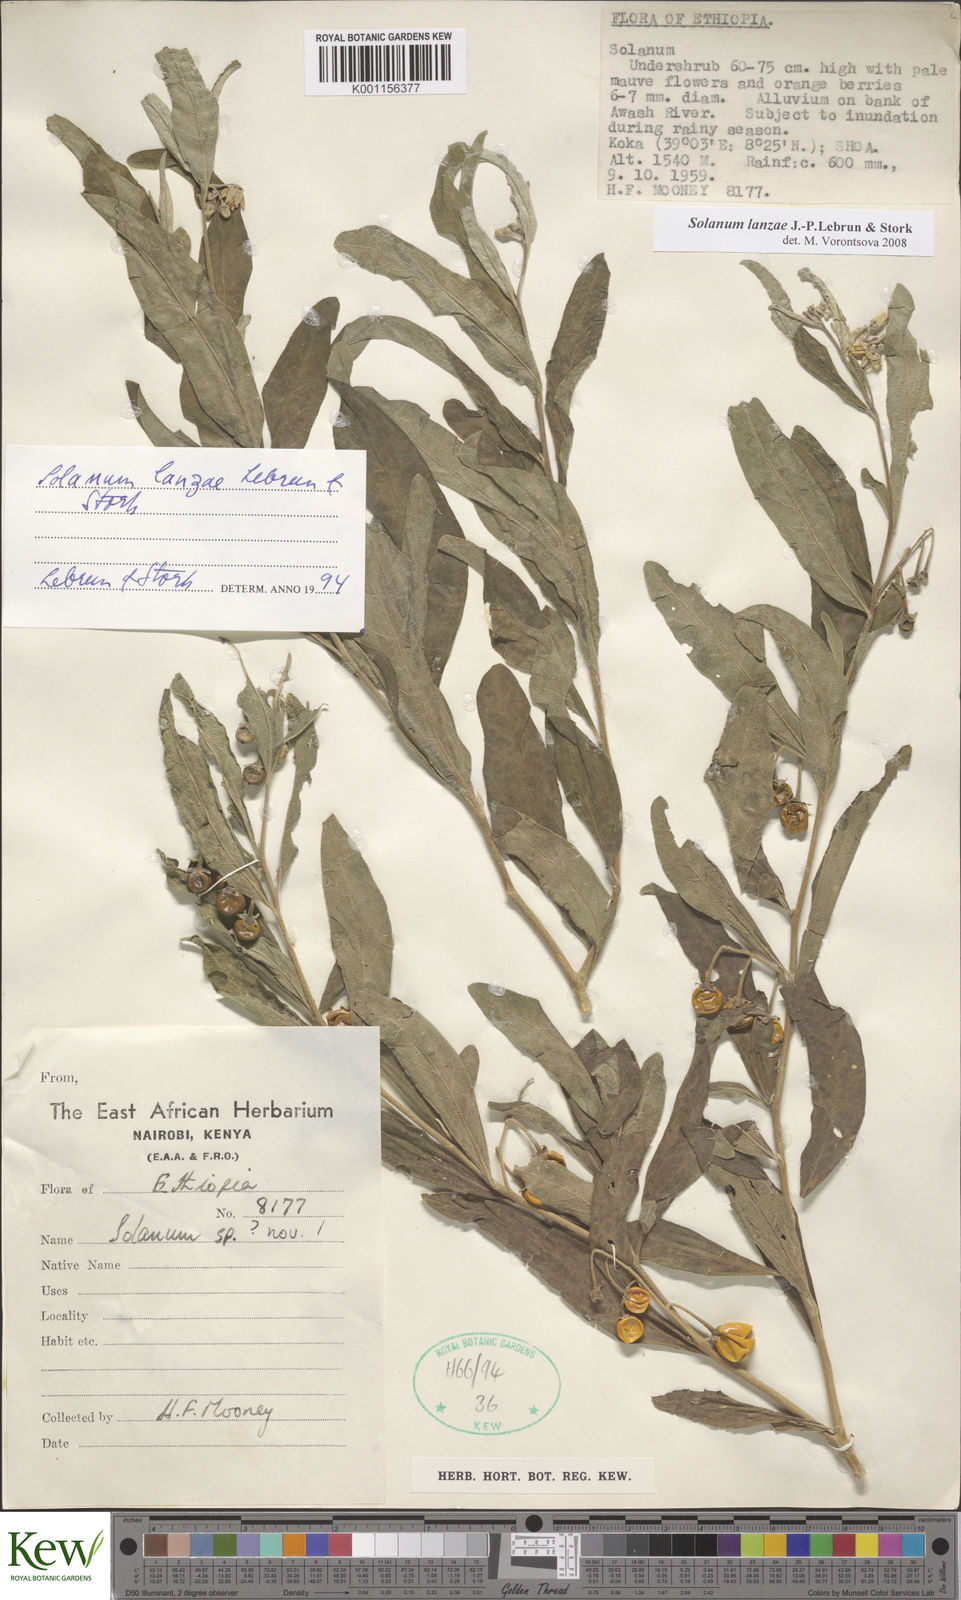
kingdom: Plantae
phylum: Tracheophyta
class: Magnoliopsida
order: Solanales
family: Solanaceae
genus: Solanum
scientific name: Solanum lanzae
